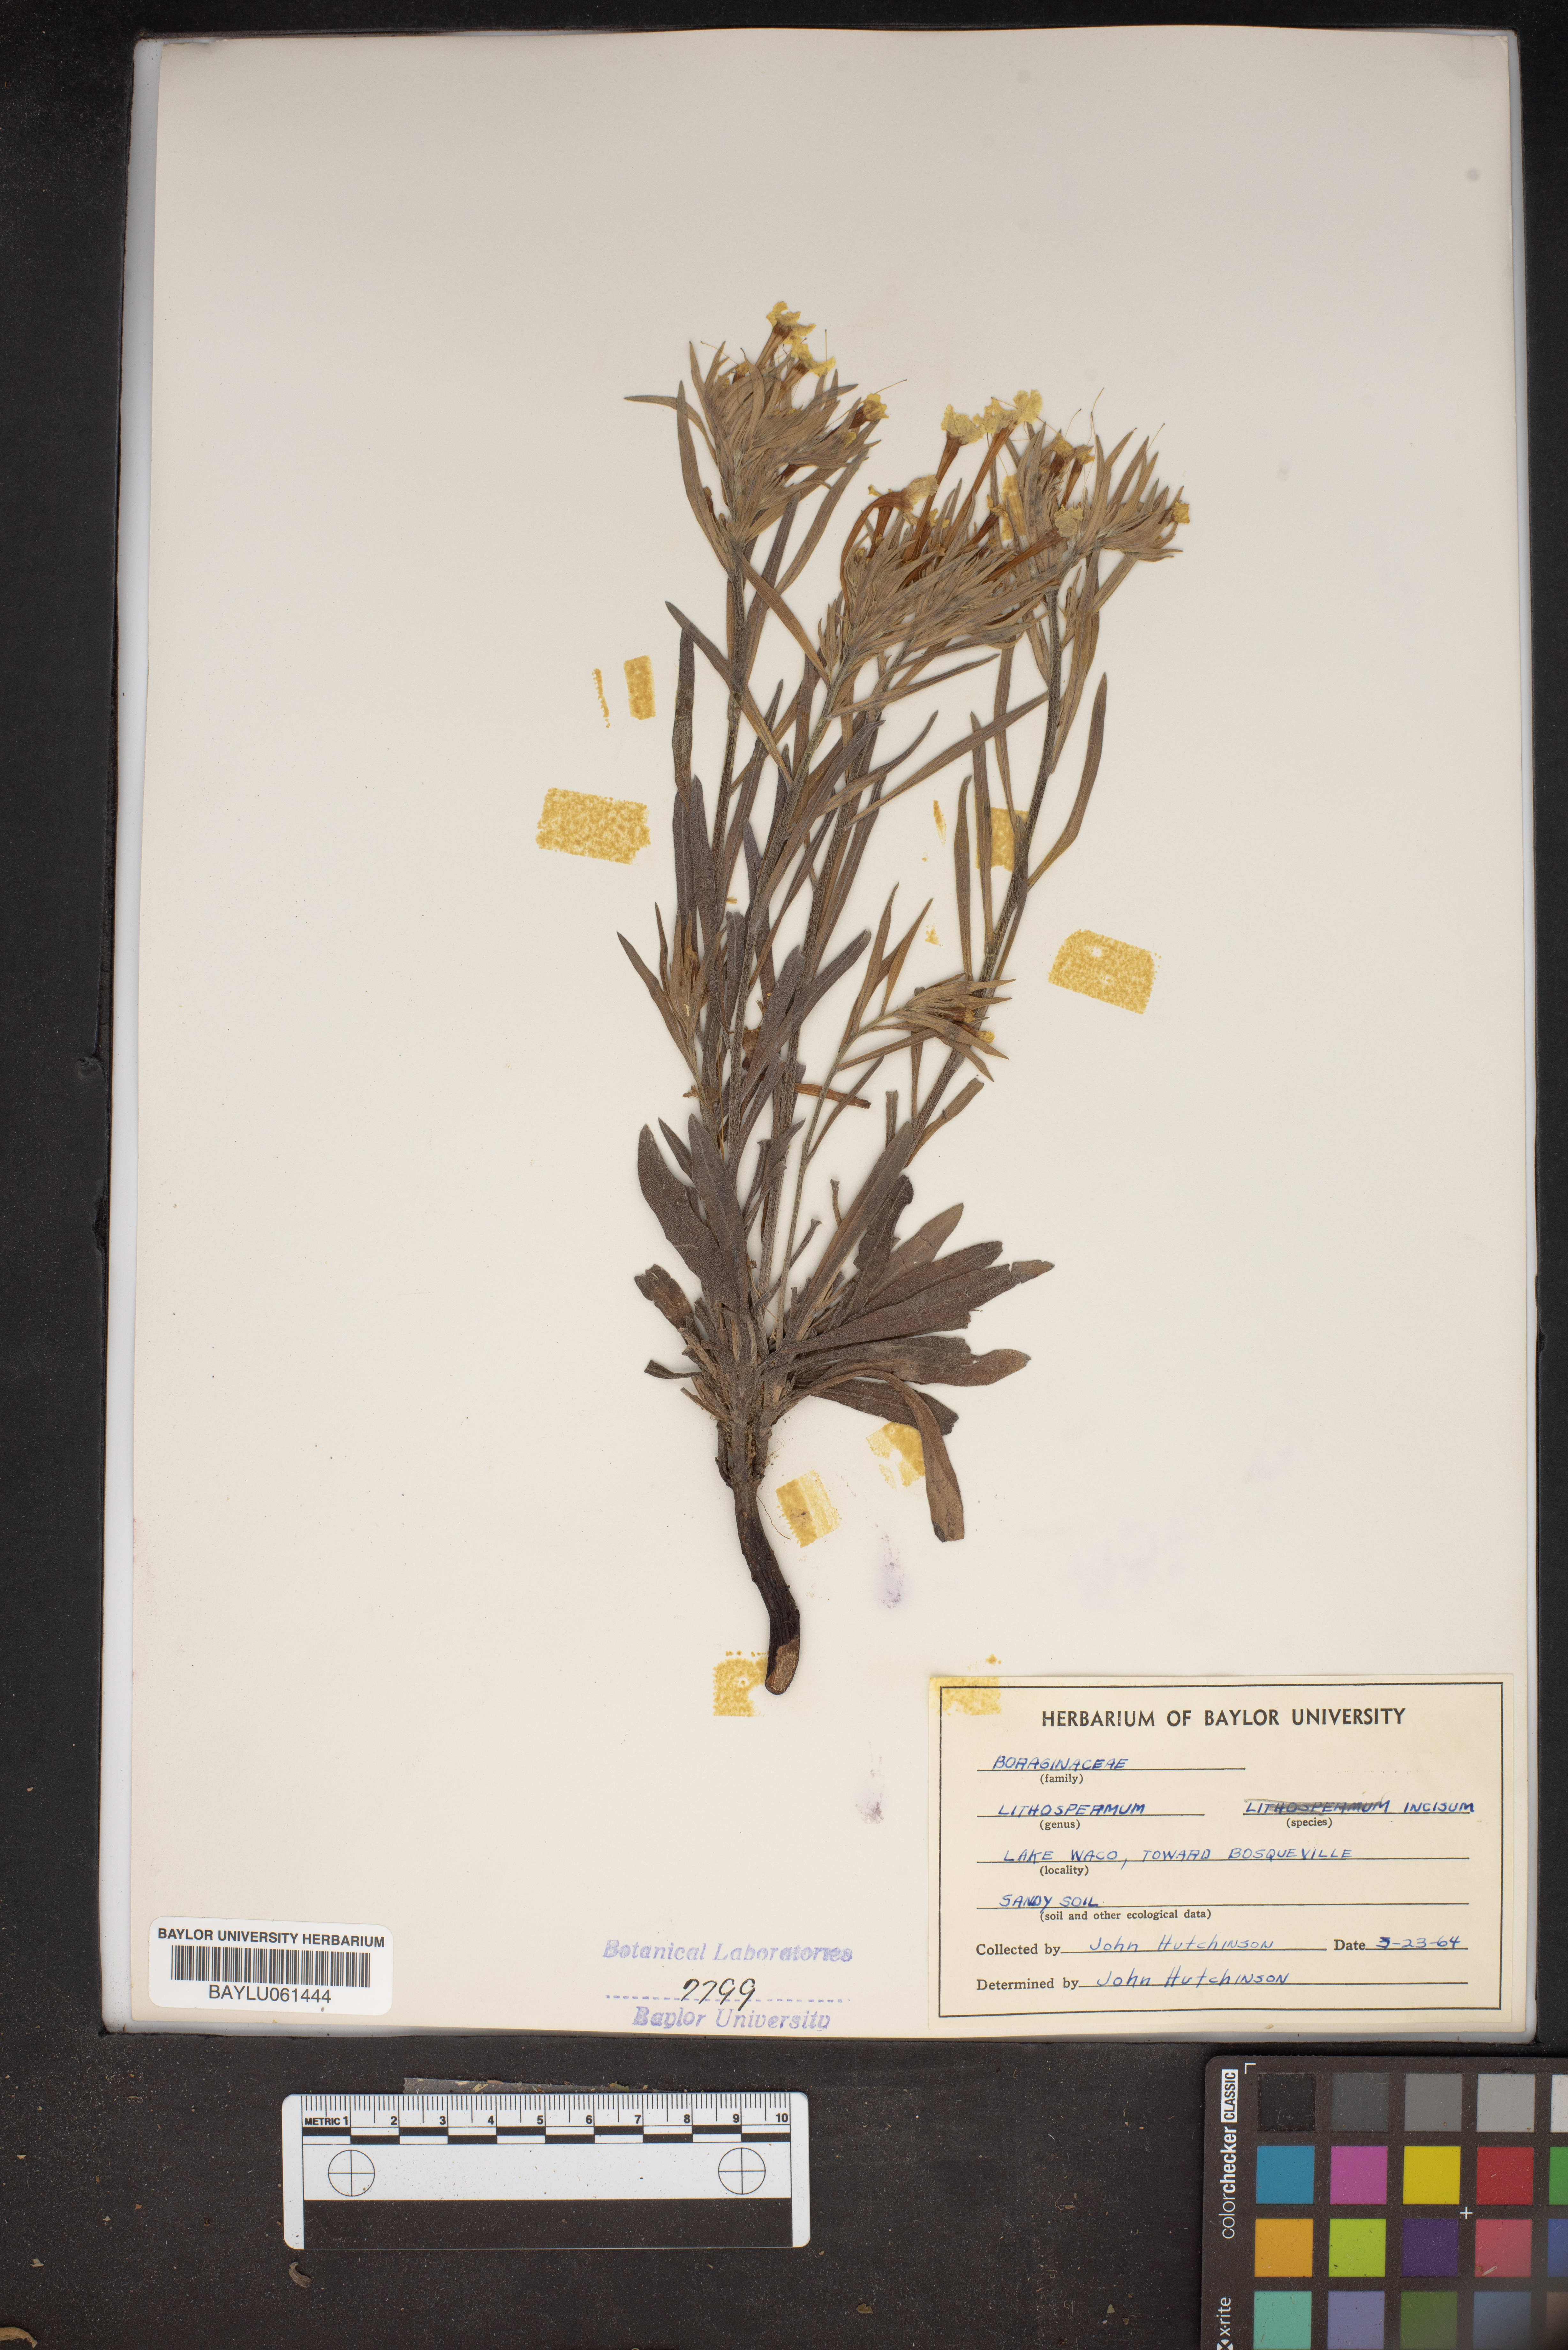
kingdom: Plantae
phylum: Tracheophyta
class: Magnoliopsida
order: Boraginales
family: Boraginaceae
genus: Lithospermum
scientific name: Lithospermum incisum
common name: Fringed gromwell
